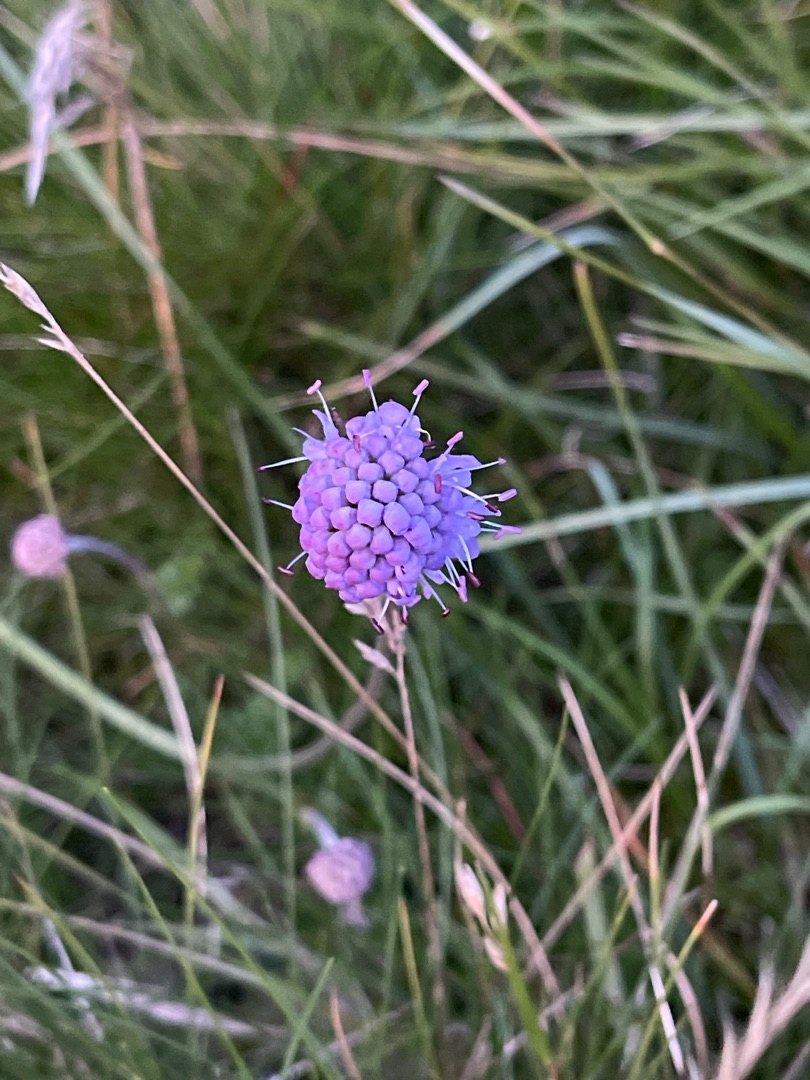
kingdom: Plantae
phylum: Tracheophyta
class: Magnoliopsida
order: Dipsacales
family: Caprifoliaceae
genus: Succisa
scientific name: Succisa pratensis
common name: Djævelsbid
